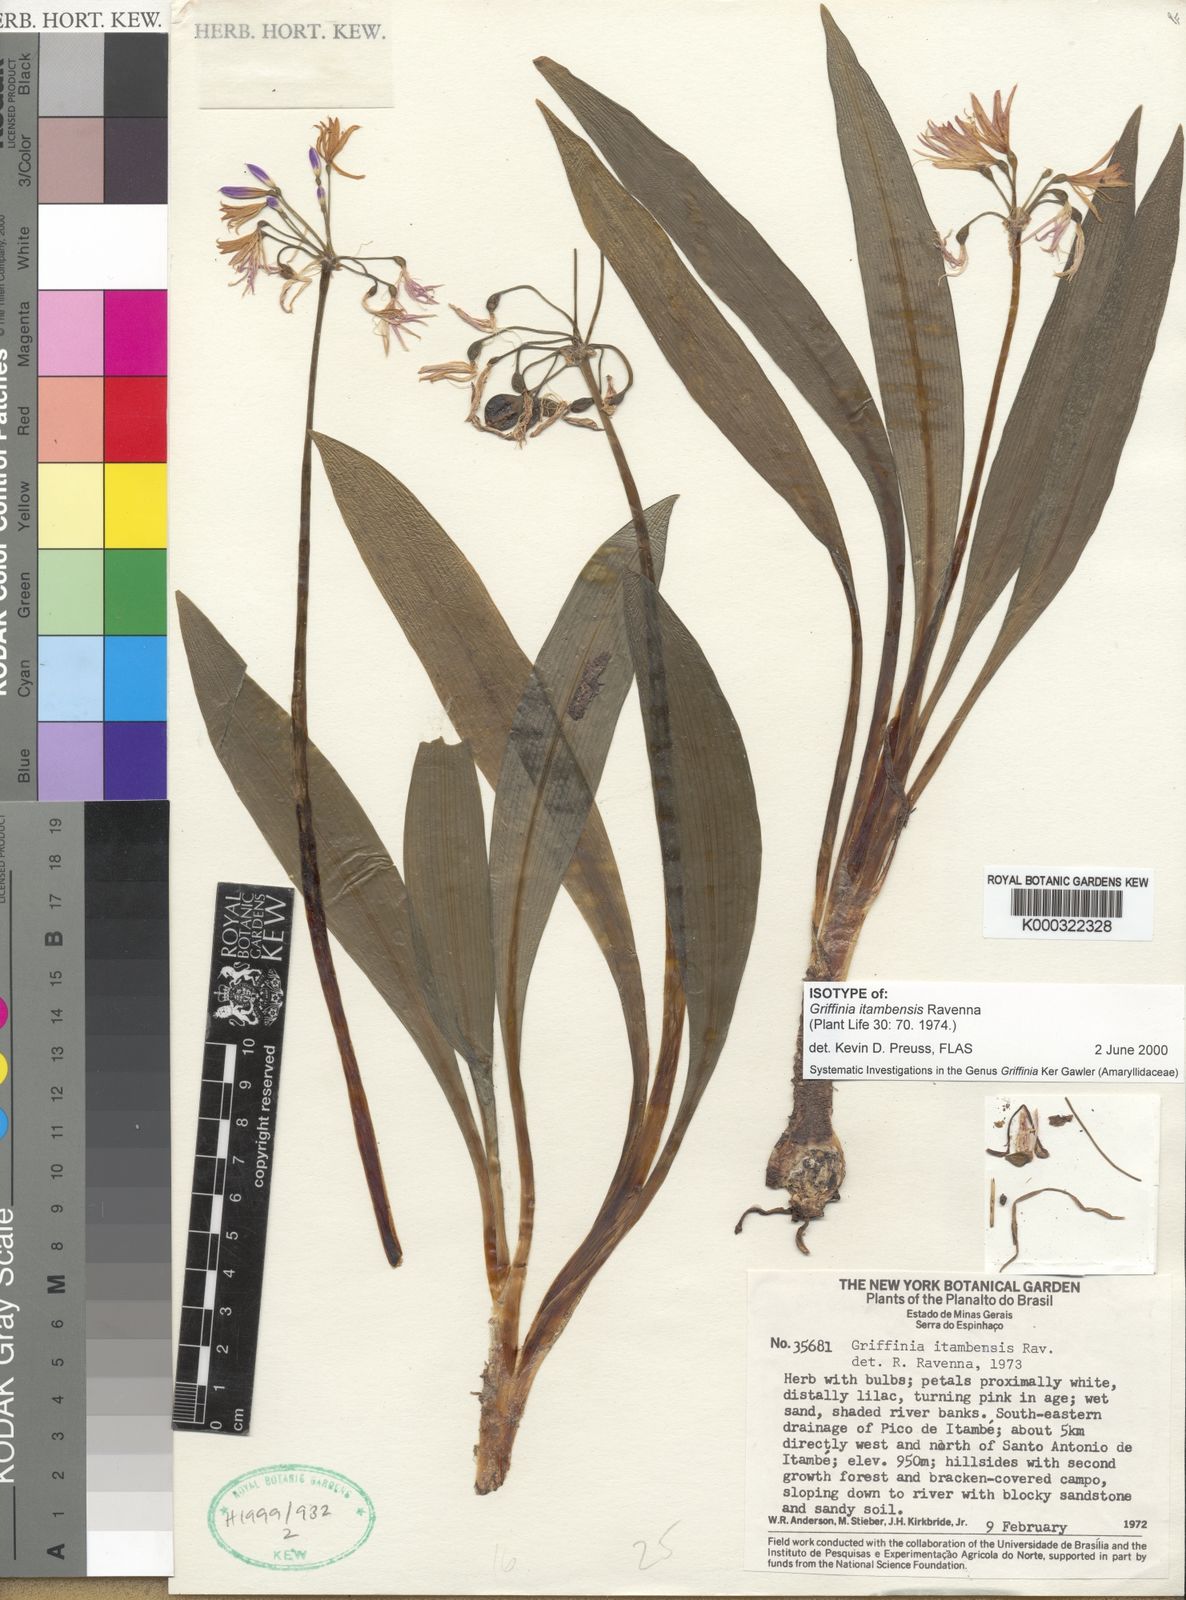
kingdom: Plantae
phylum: Tracheophyta
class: Liliopsida
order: Asparagales
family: Amaryllidaceae
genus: Griffinia
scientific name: Griffinia itambensis
